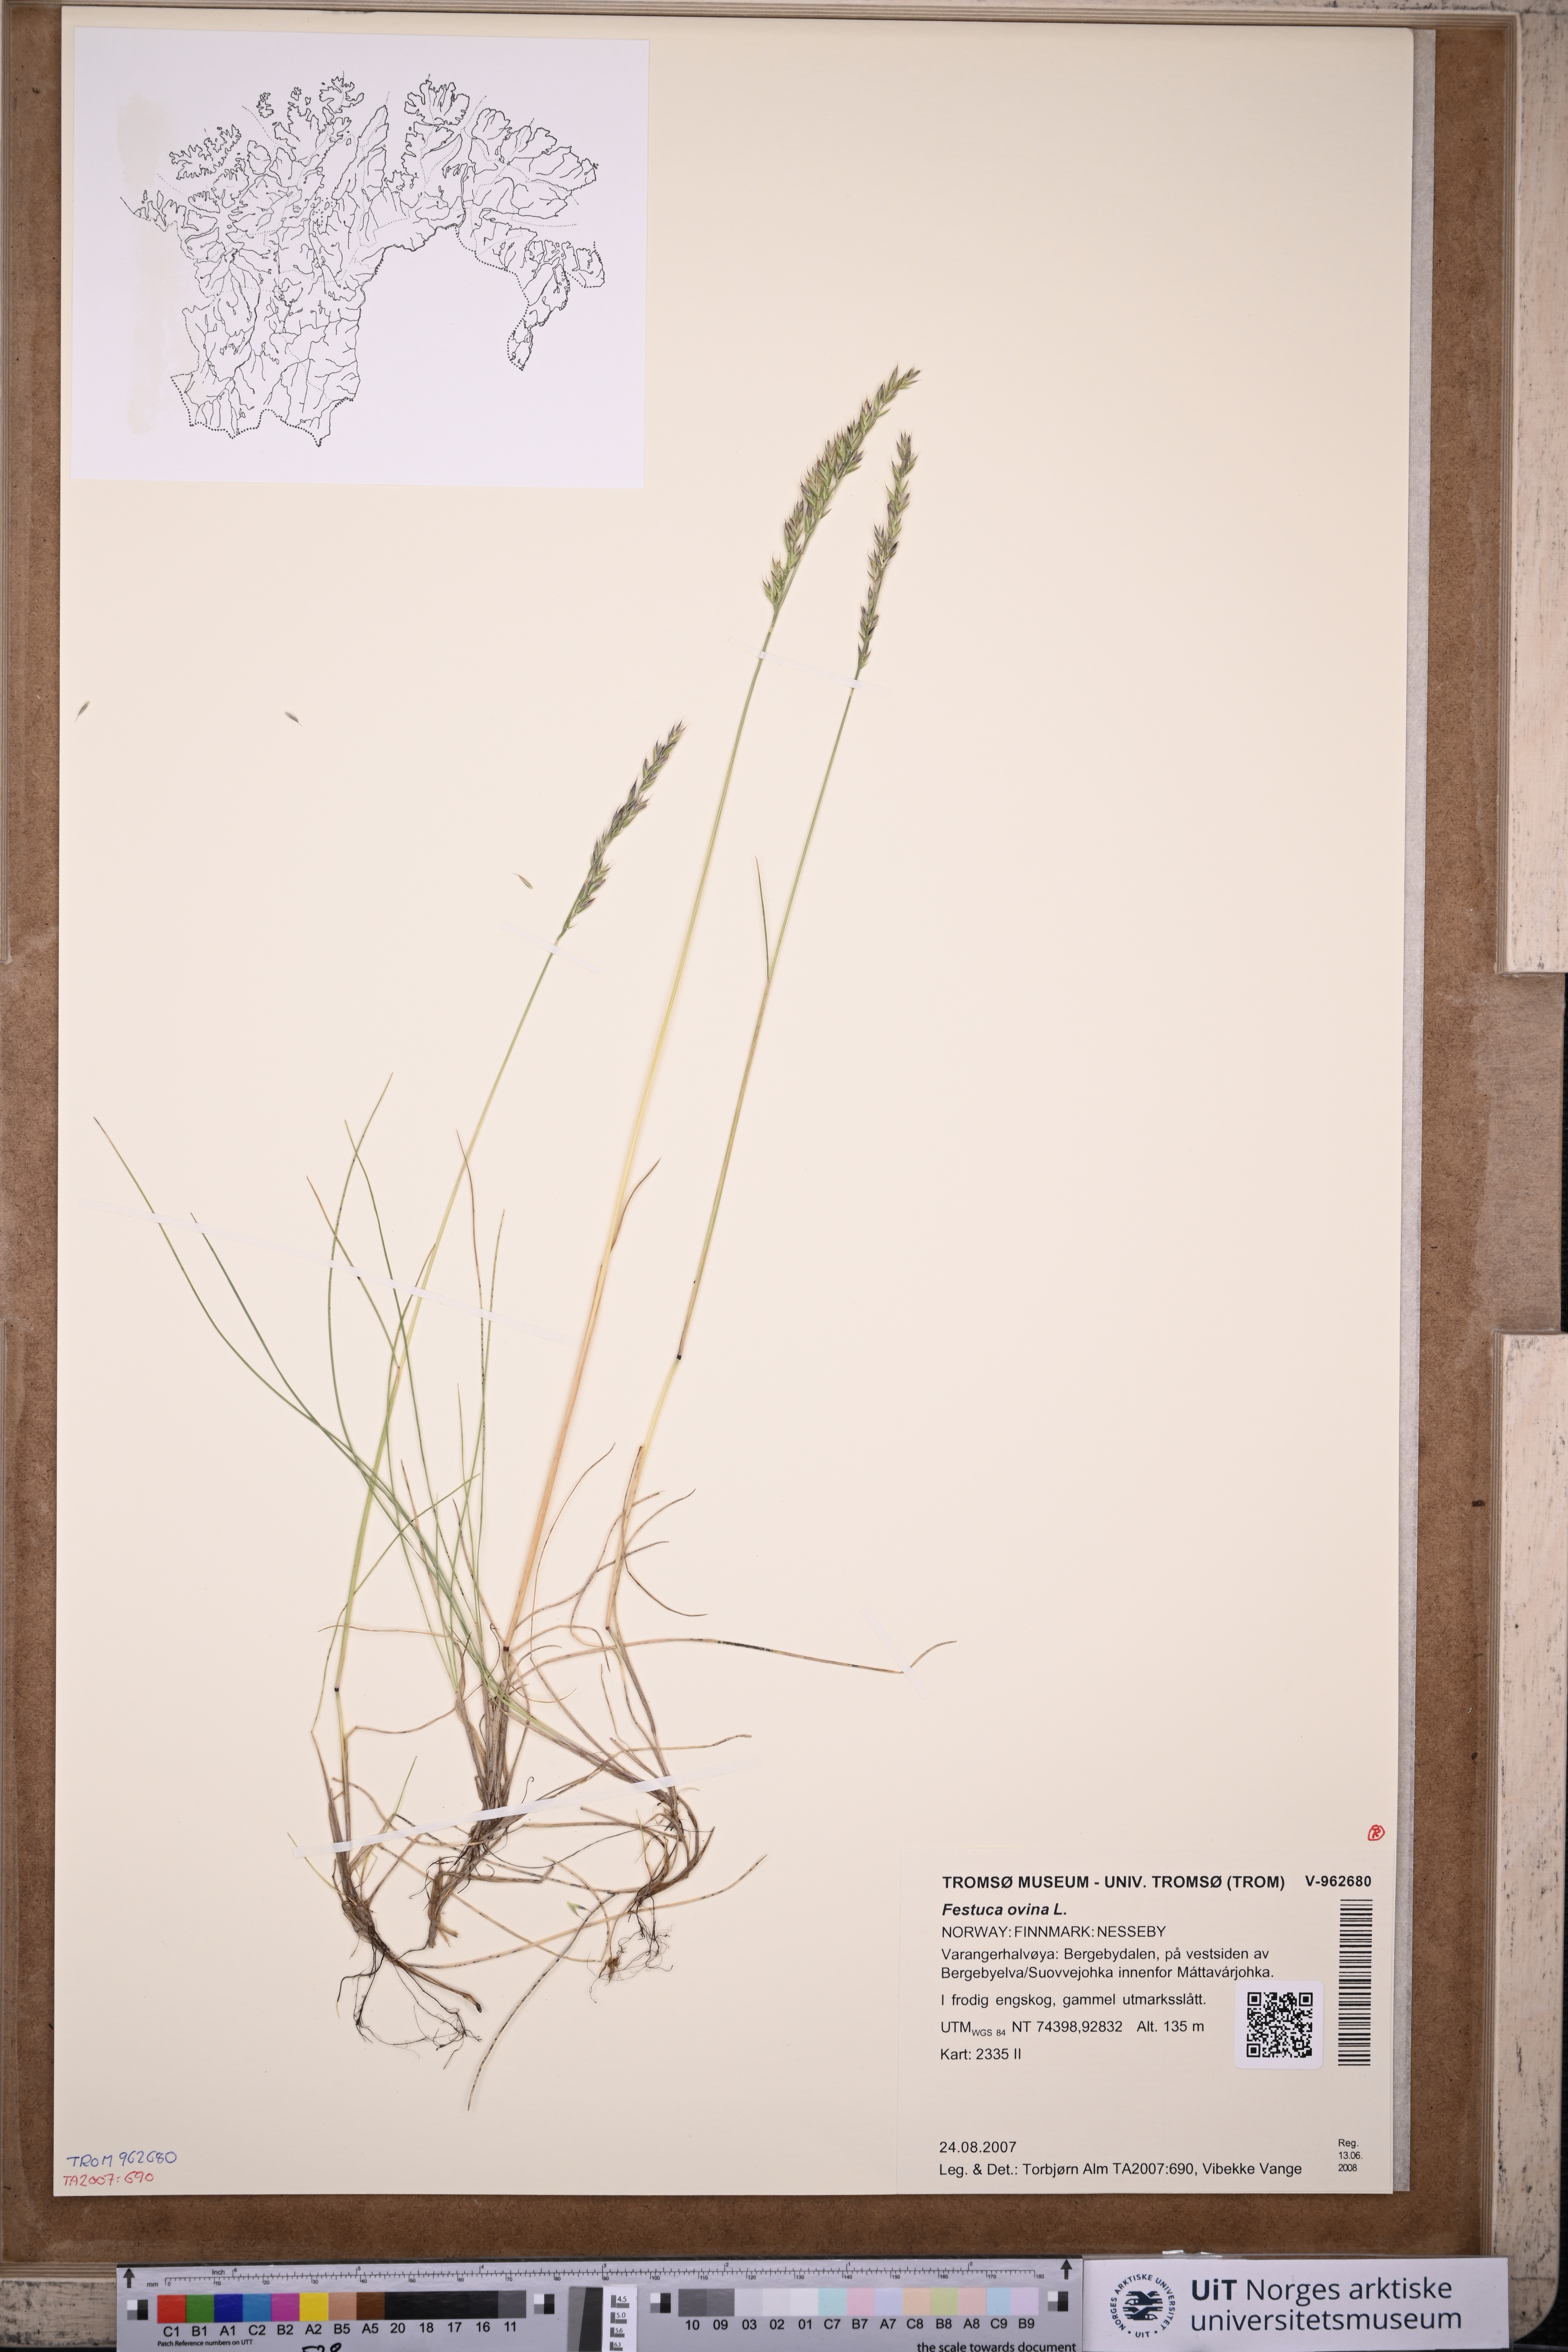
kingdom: Plantae
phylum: Tracheophyta
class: Liliopsida
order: Poales
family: Poaceae
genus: Festuca
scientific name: Festuca ovina
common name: Sheep fescue
